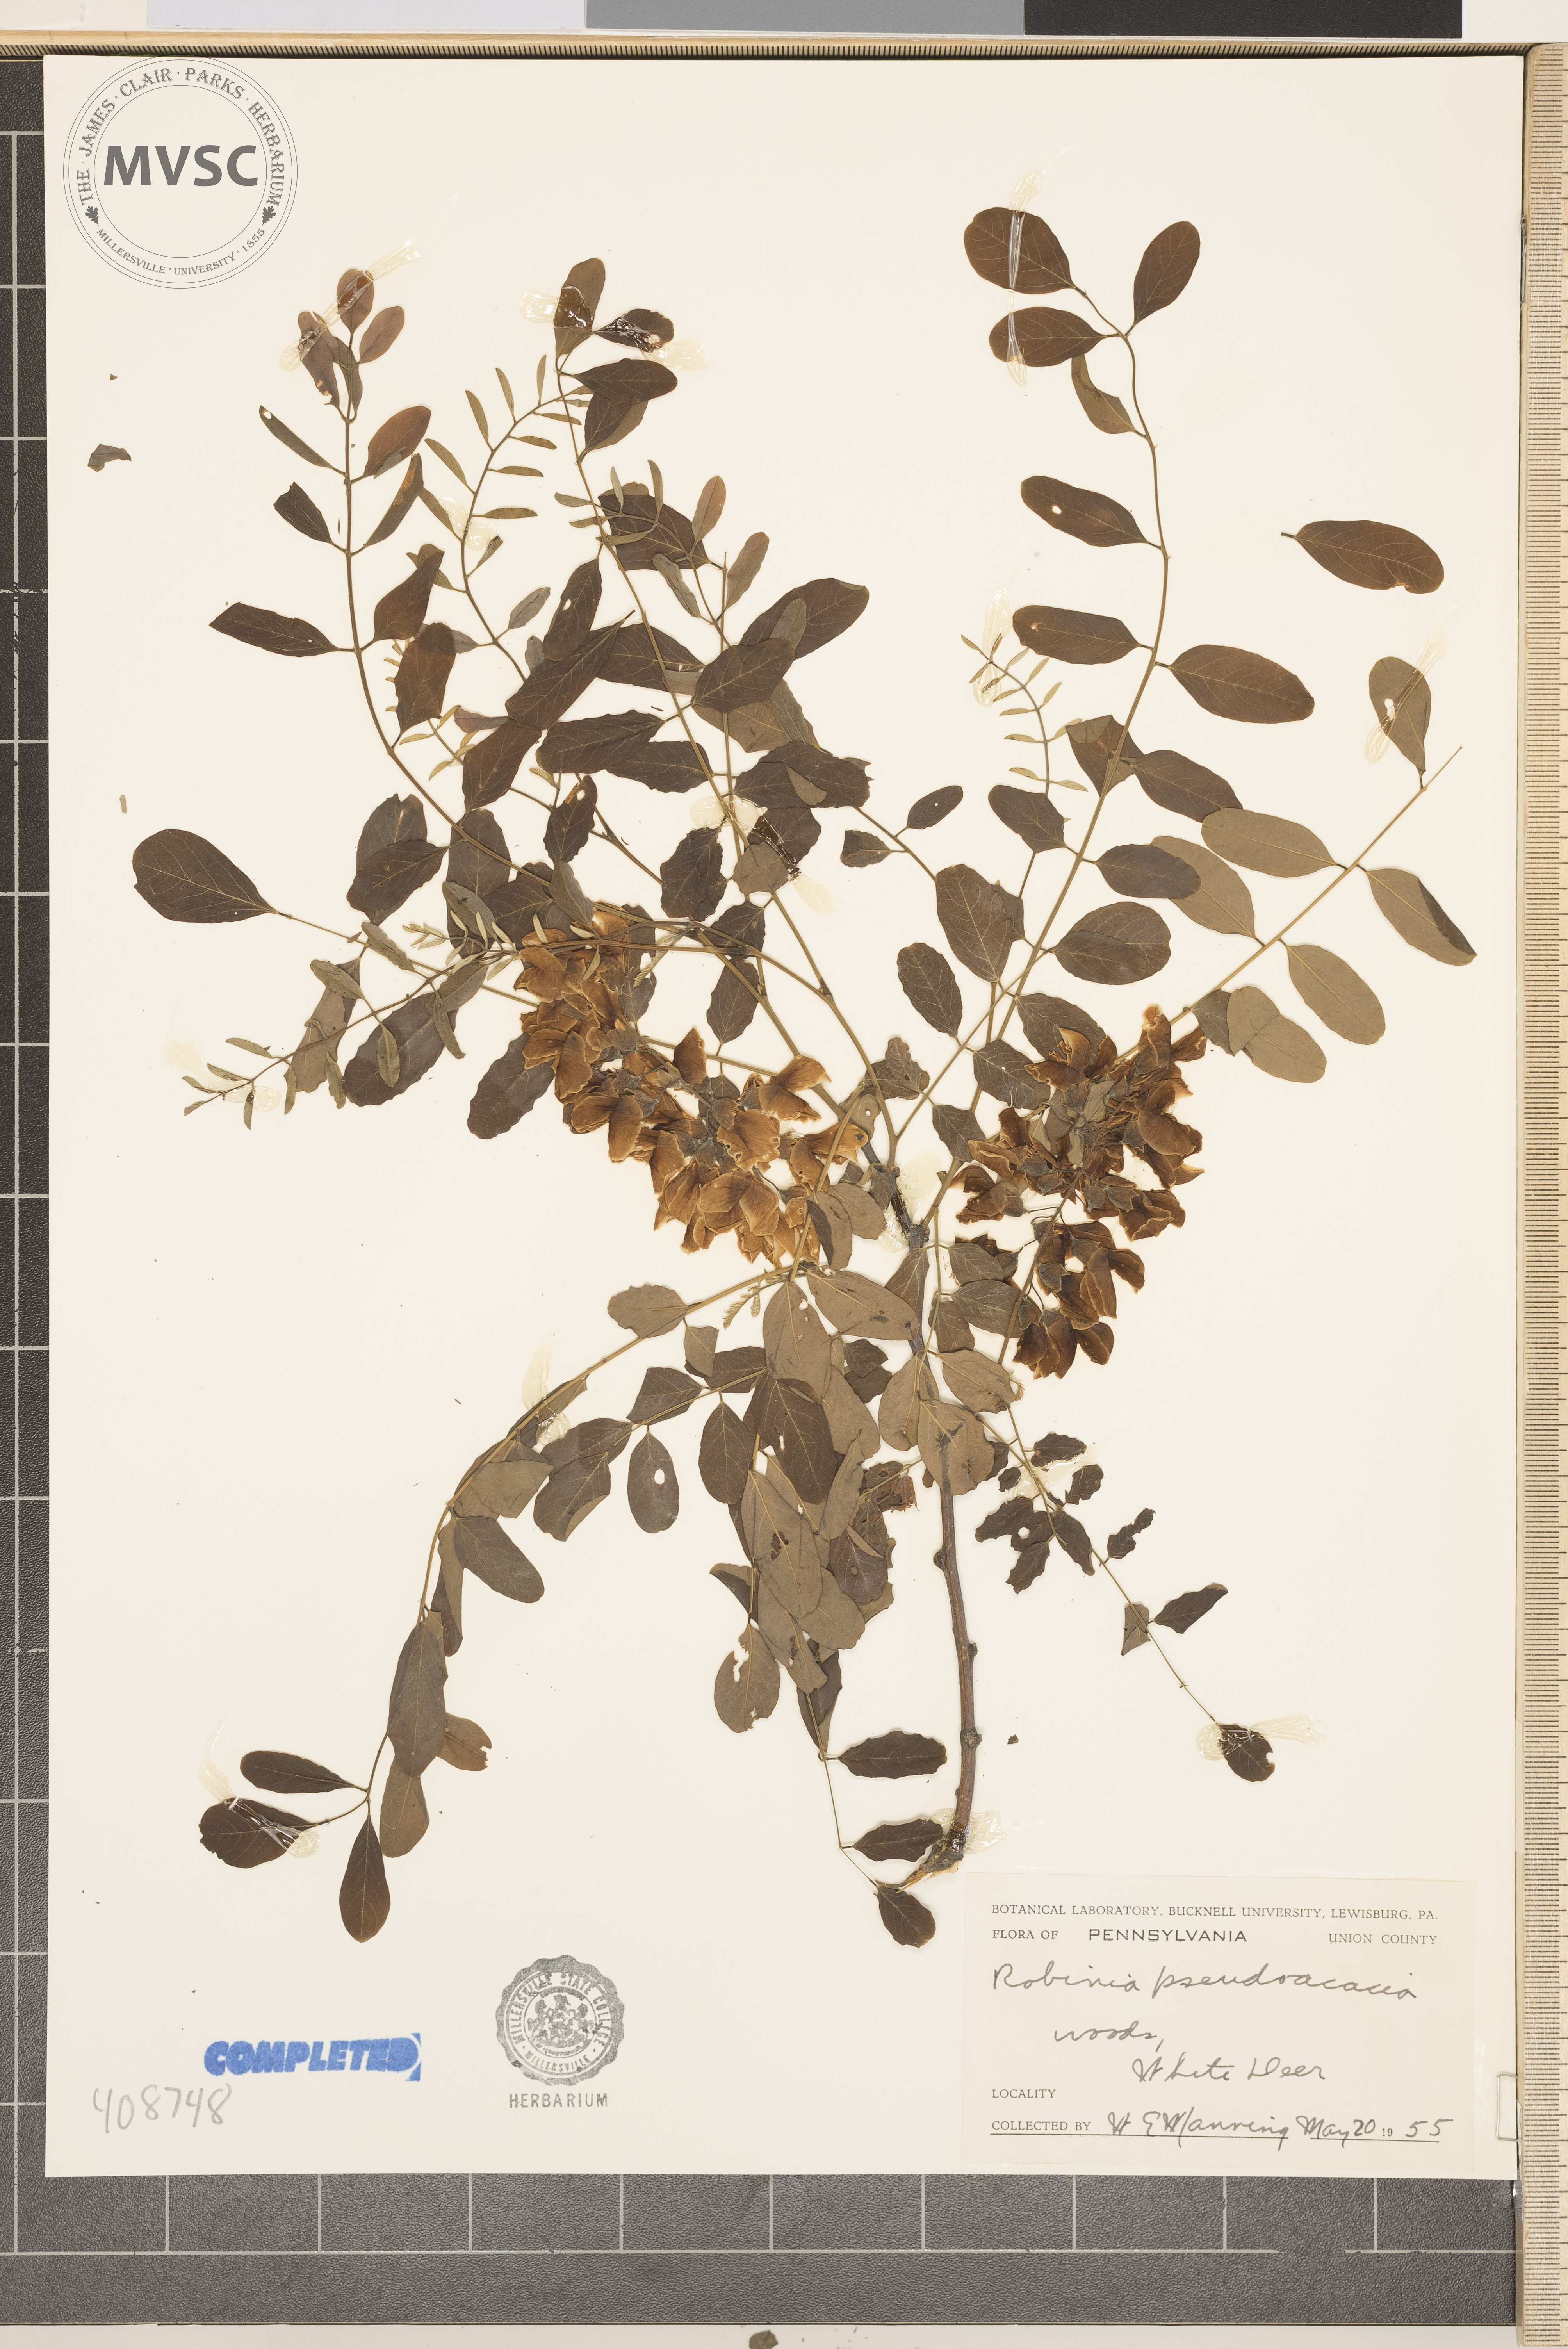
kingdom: Plantae
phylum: Tracheophyta
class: Magnoliopsida
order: Fabales
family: Fabaceae
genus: Robinia
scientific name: Robinia pseudoacacia
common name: Black locust
